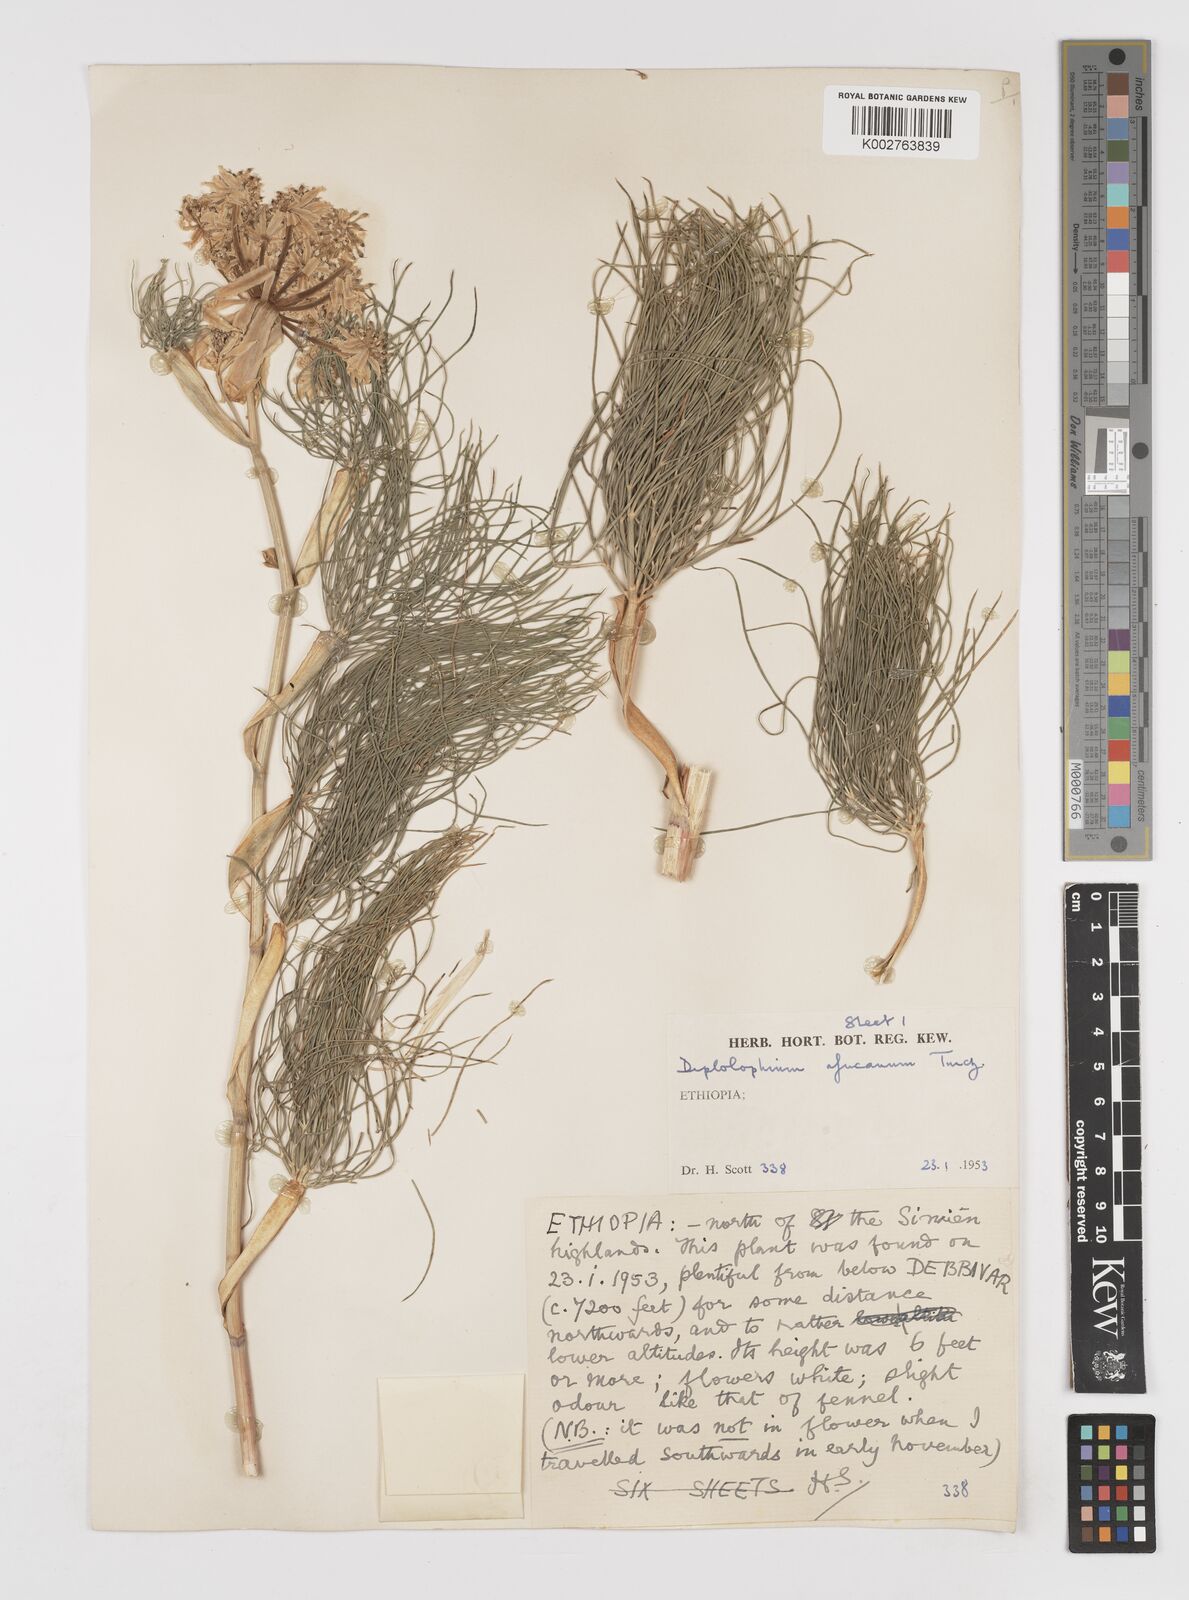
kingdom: Plantae
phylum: Tracheophyta
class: Magnoliopsida
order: Apiales
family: Apiaceae
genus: Diplolophium
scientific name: Diplolophium africanum
